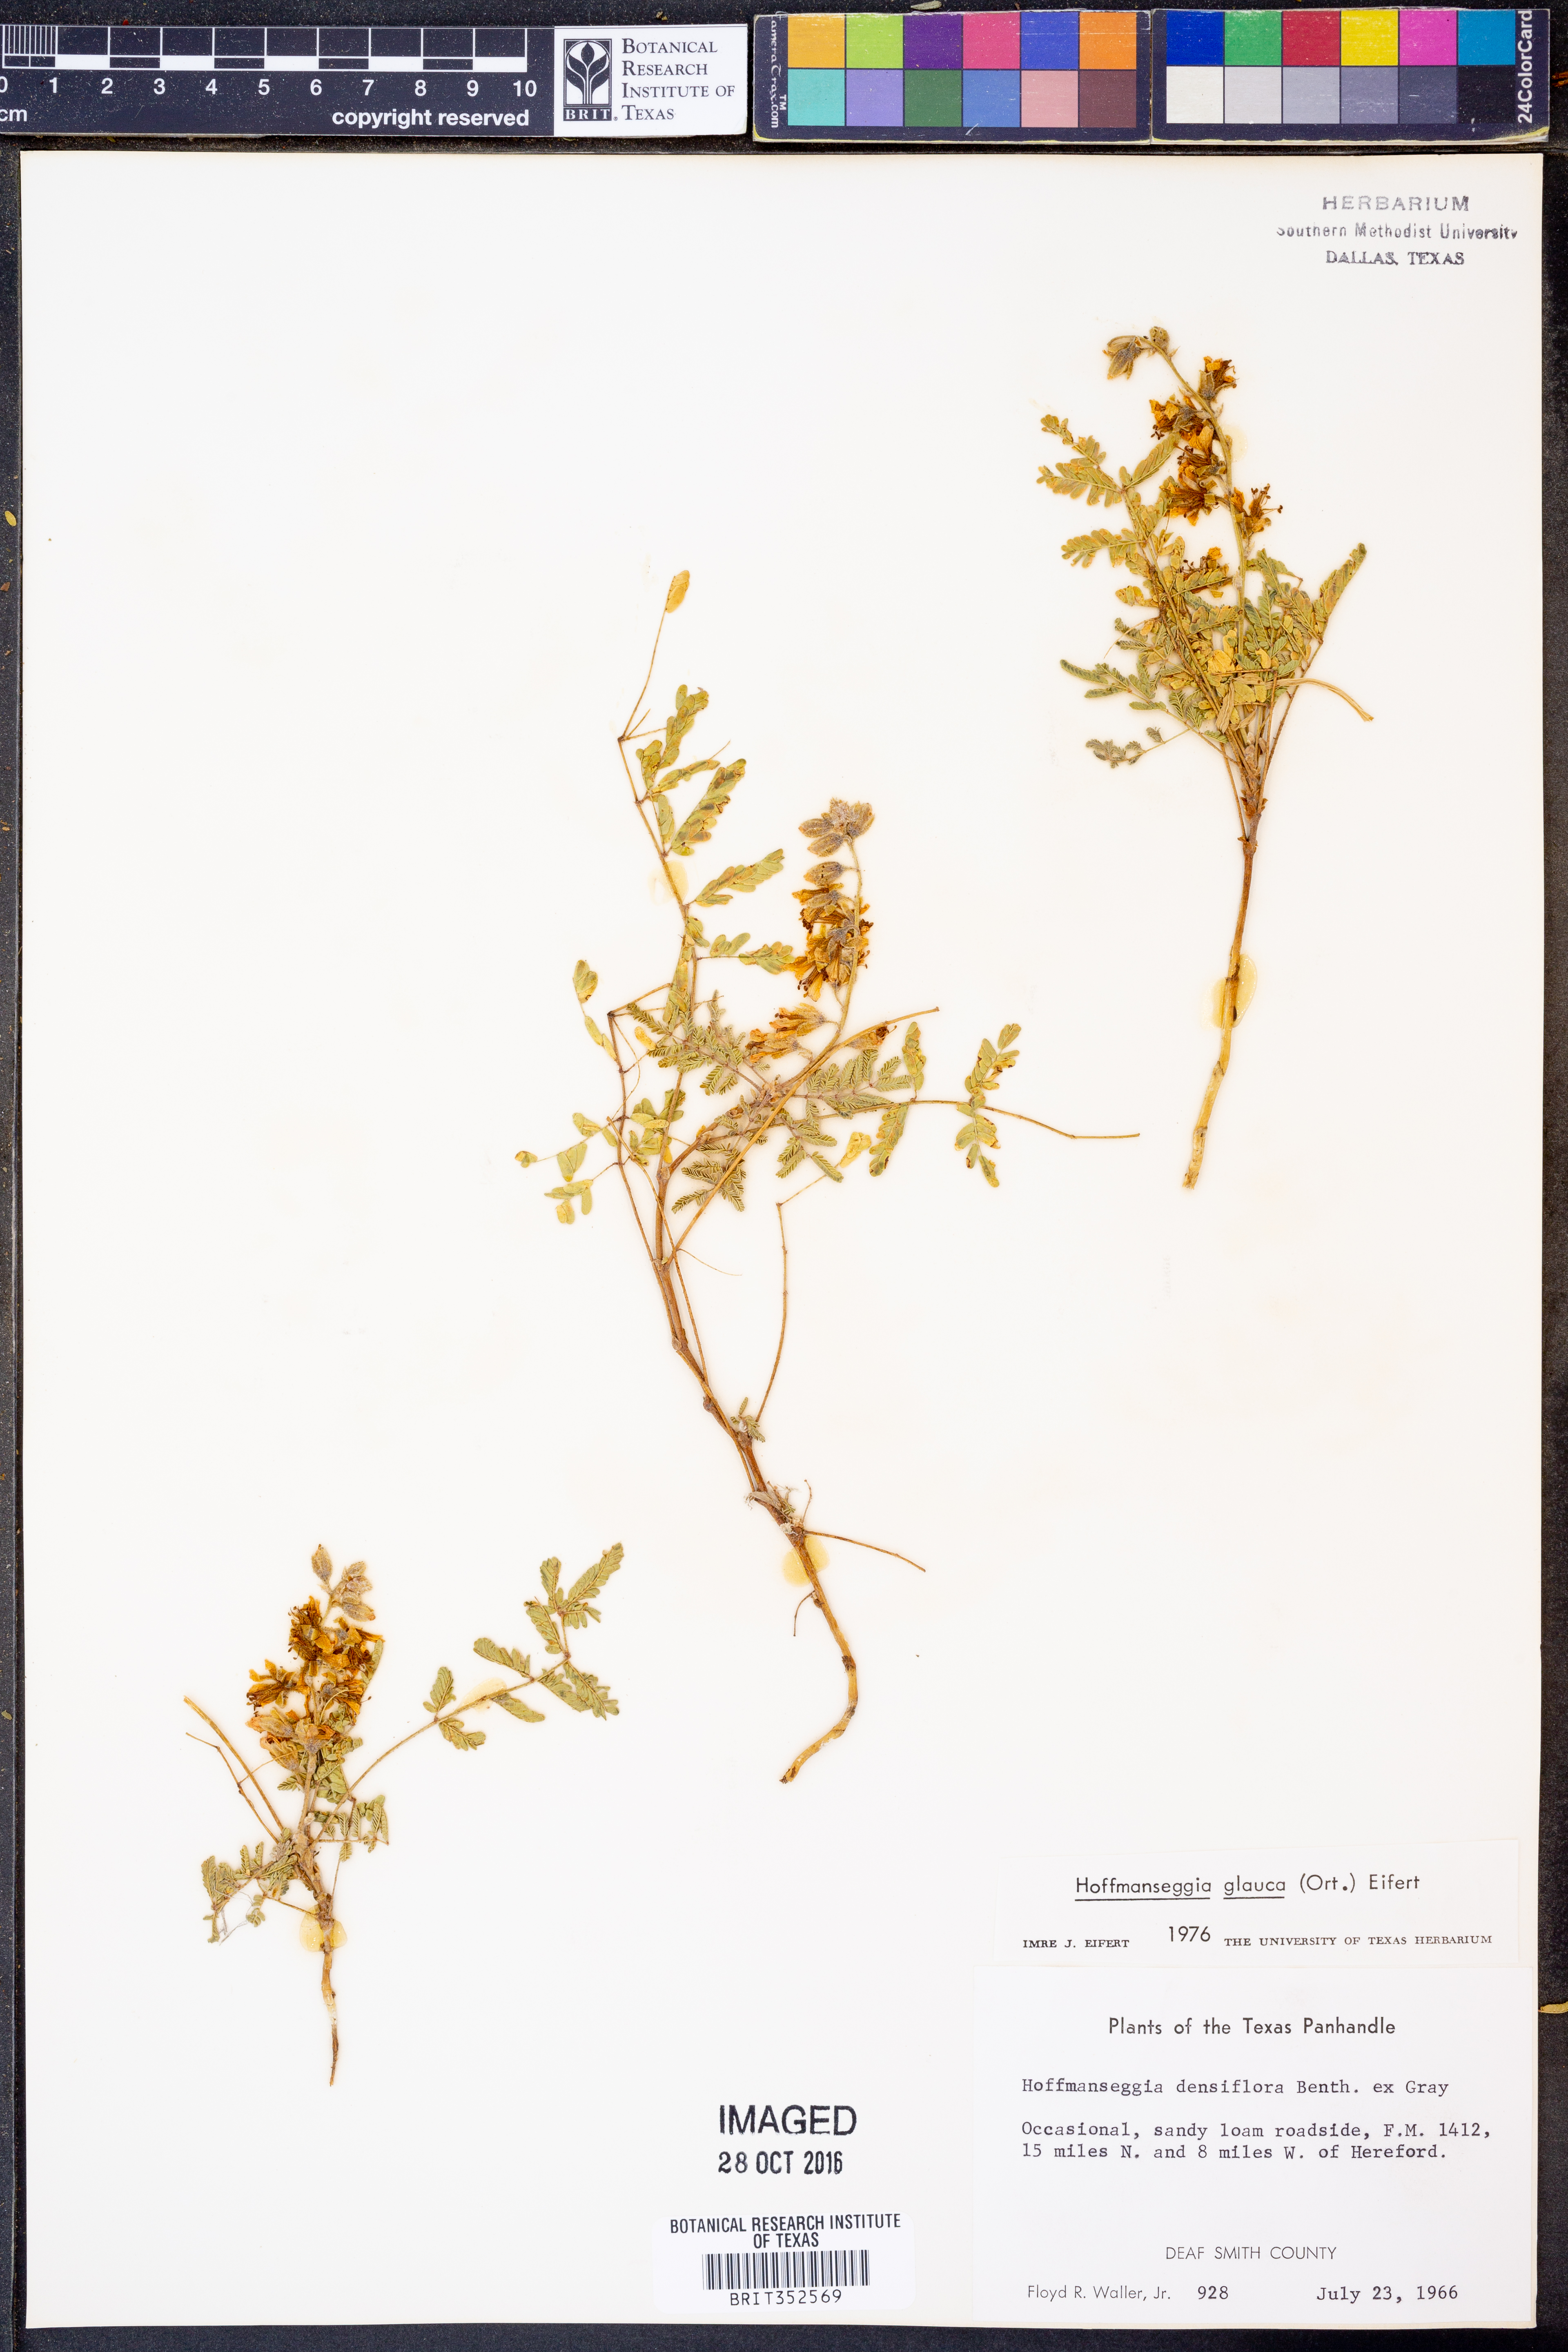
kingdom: Plantae
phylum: Tracheophyta
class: Magnoliopsida
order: Fabales
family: Fabaceae
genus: Hoffmannseggia
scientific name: Hoffmannseggia glauca
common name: Pignut
